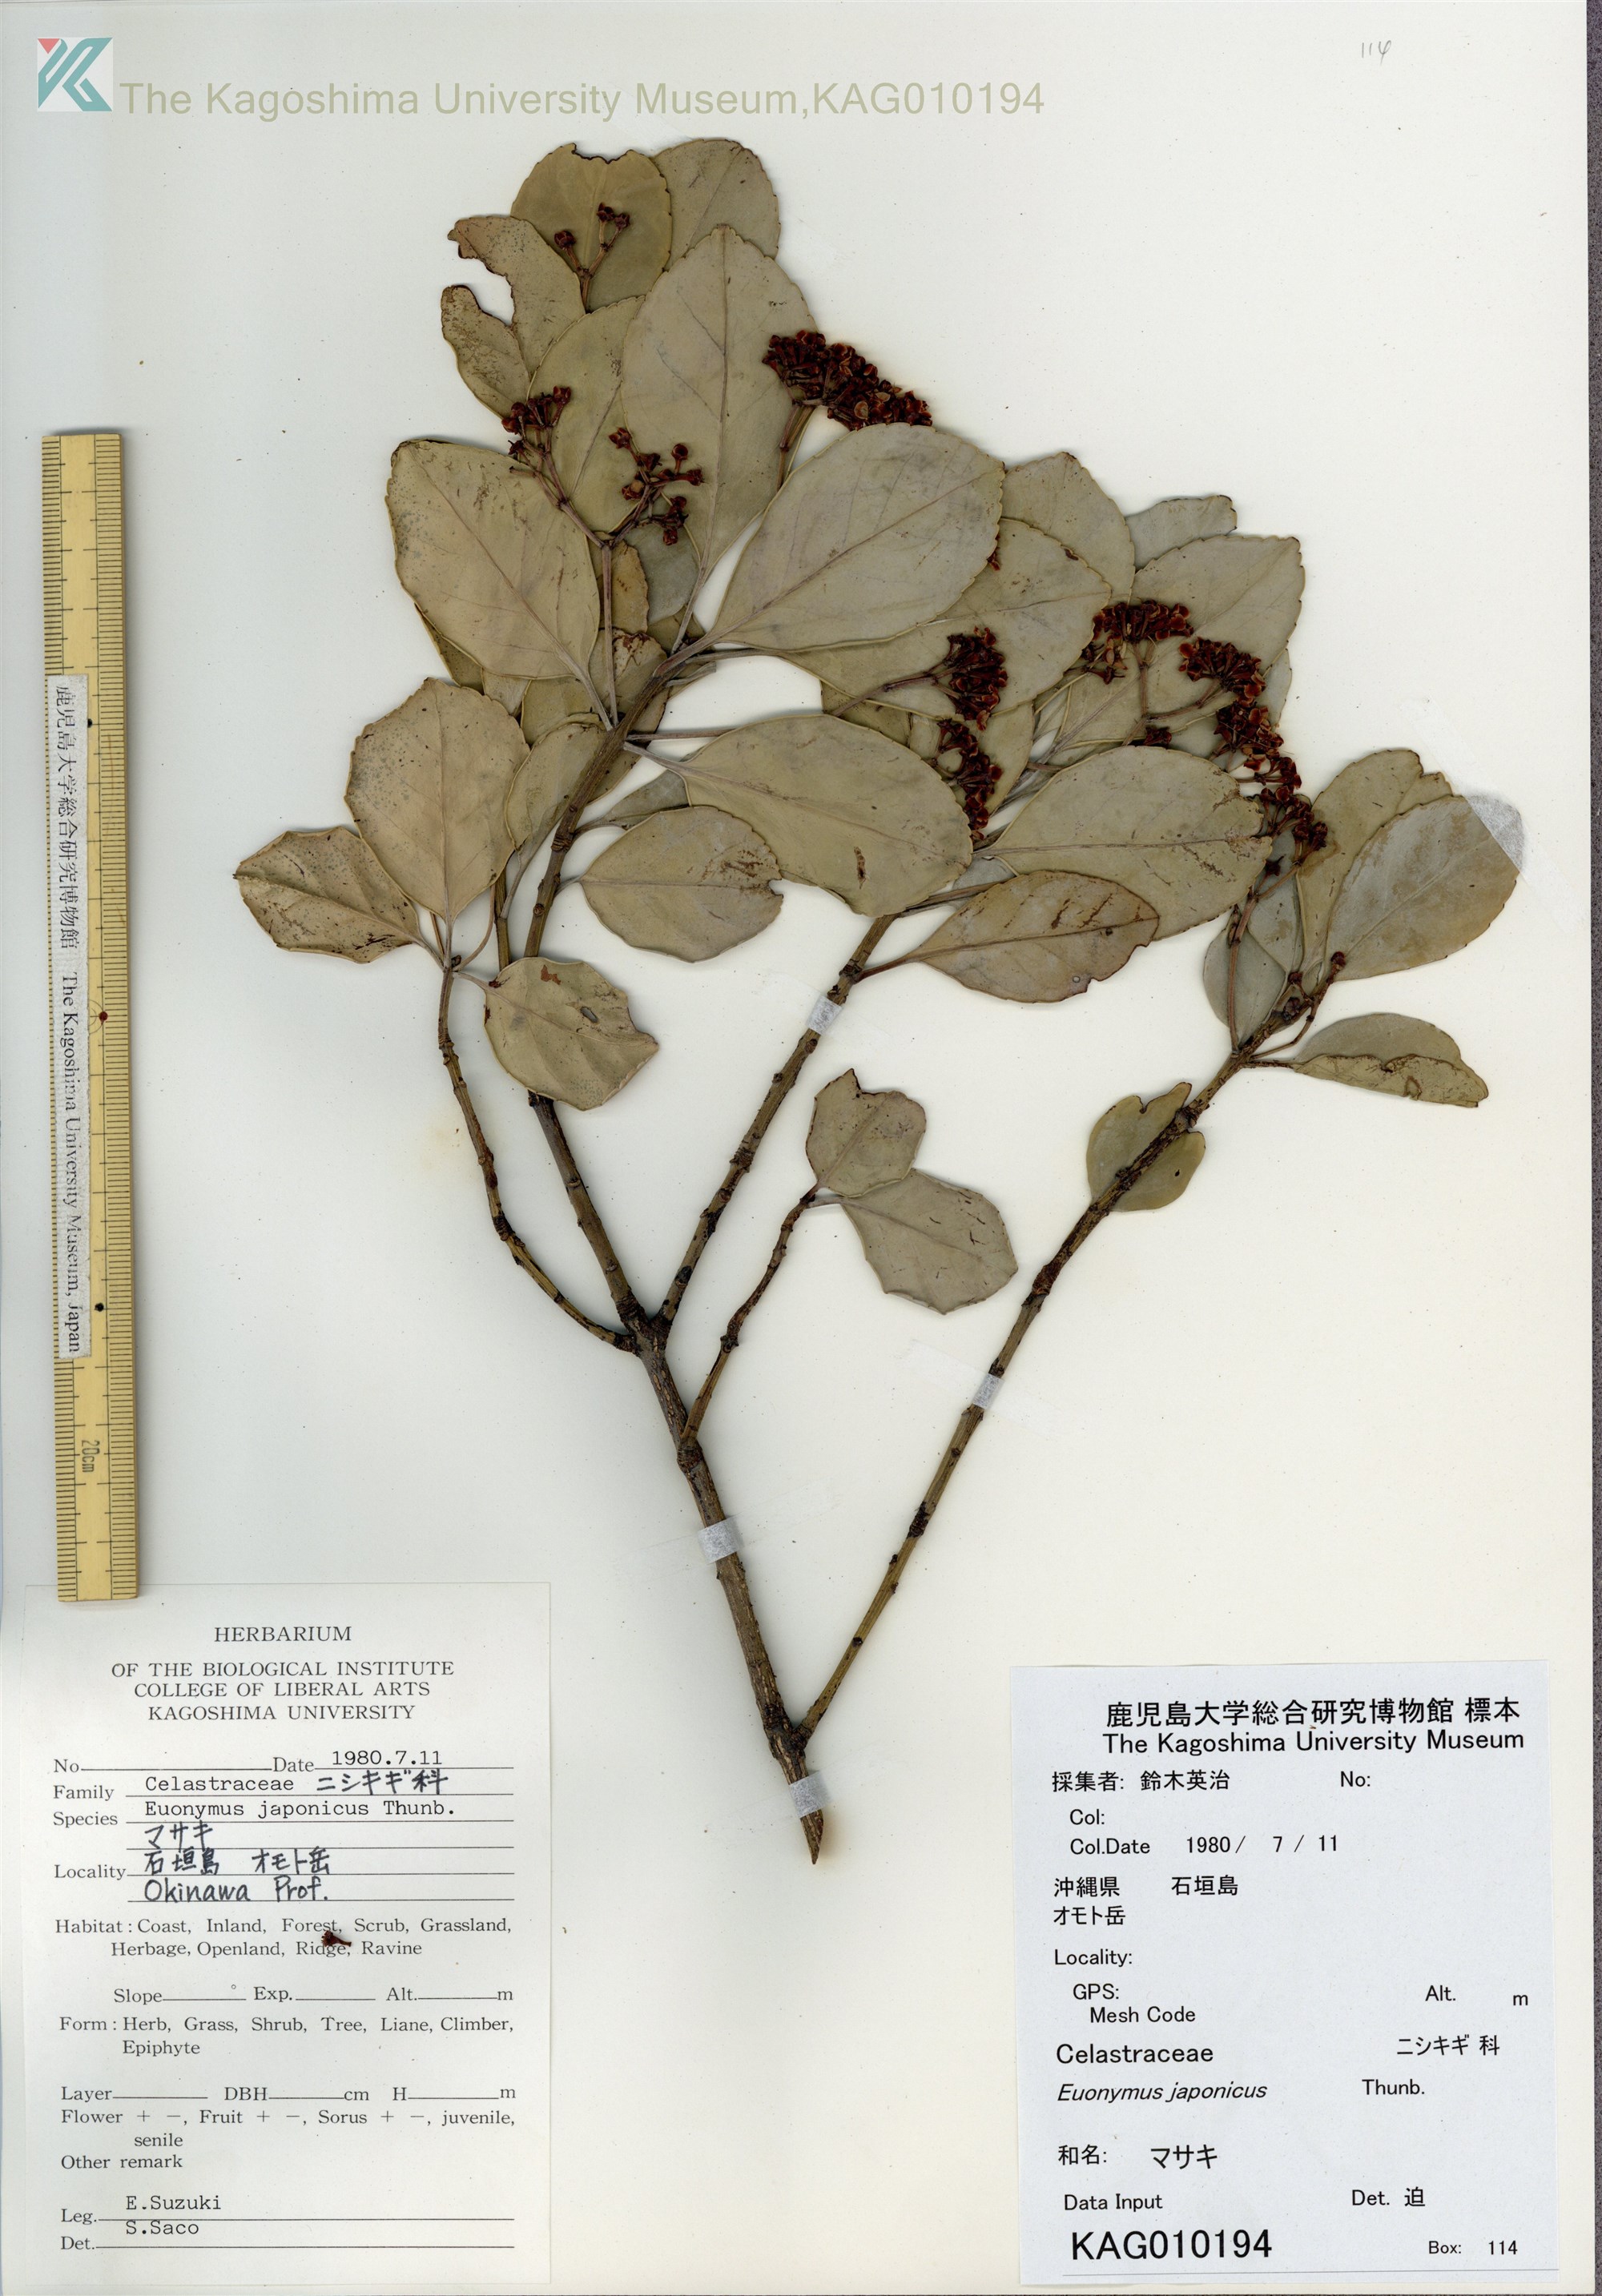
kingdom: Plantae
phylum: Tracheophyta
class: Magnoliopsida
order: Celastrales
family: Celastraceae
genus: Euonymus
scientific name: Euonymus japonicus
